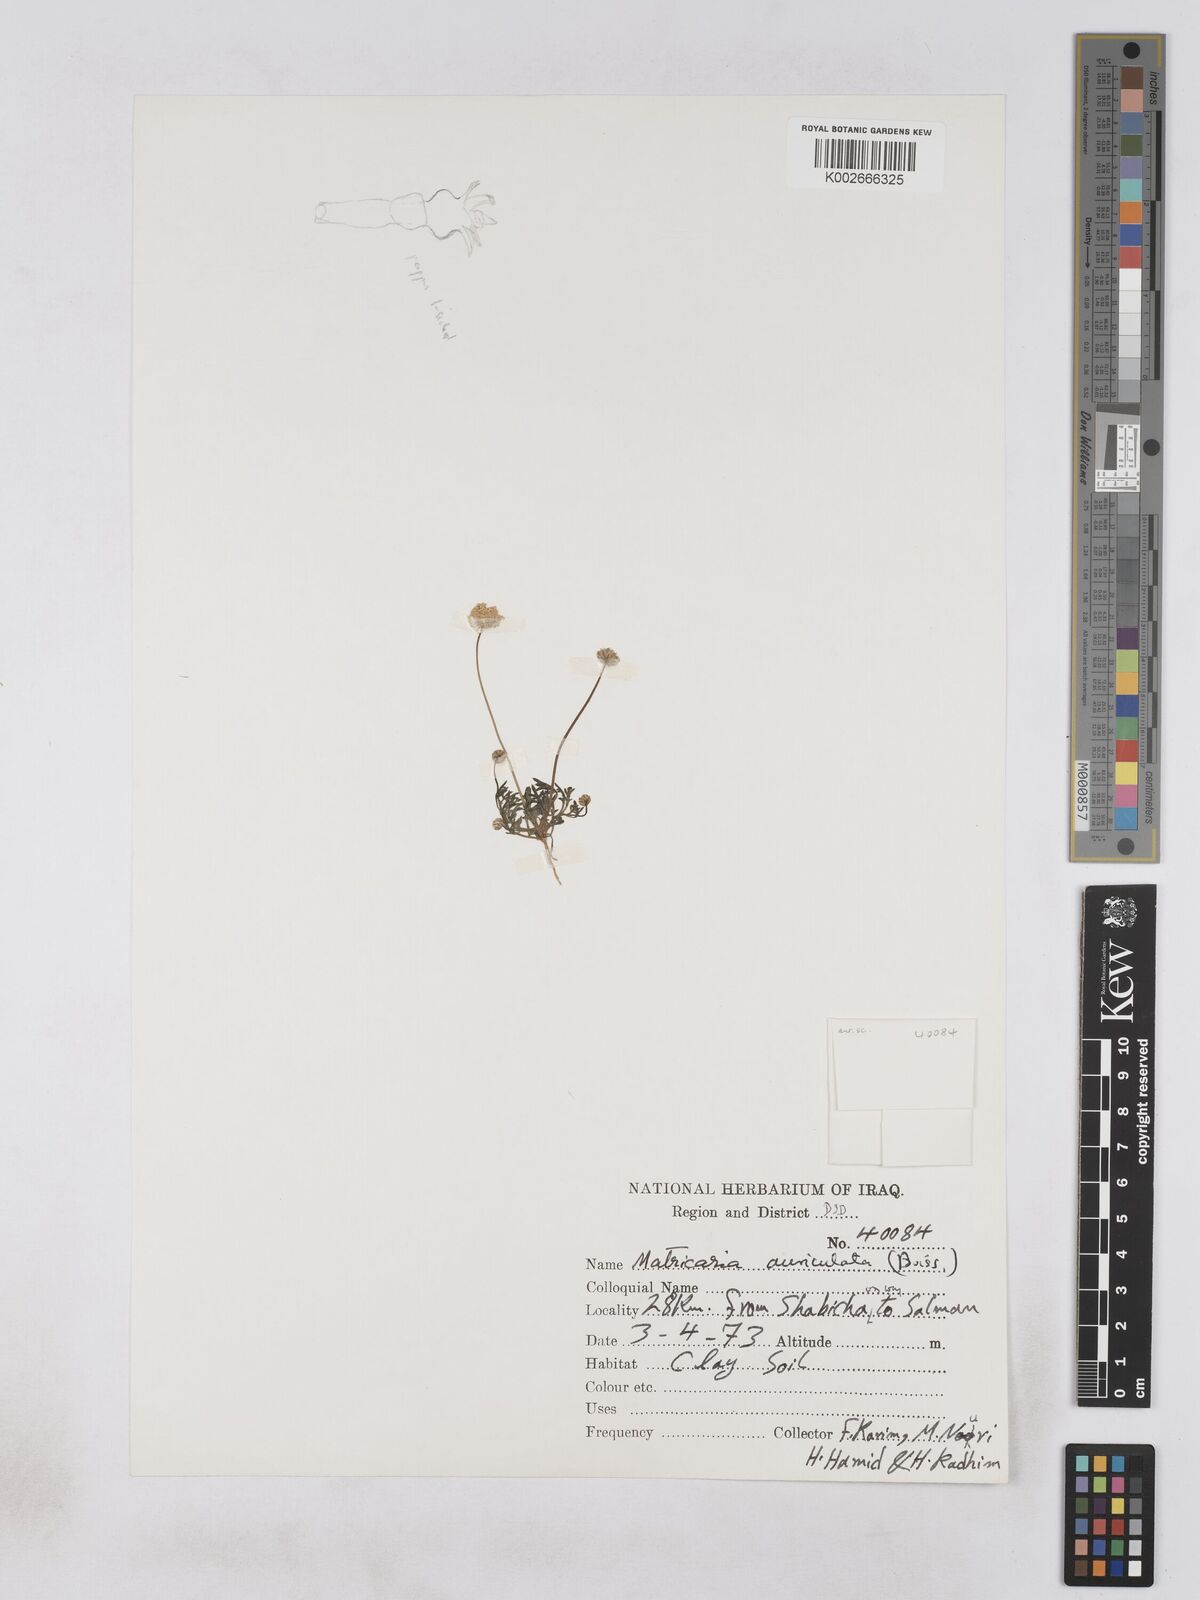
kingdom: Plantae
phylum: Tracheophyta
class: Magnoliopsida
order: Asterales
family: Asteraceae
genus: Otoglyphis
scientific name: Otoglyphis factorovskyi
